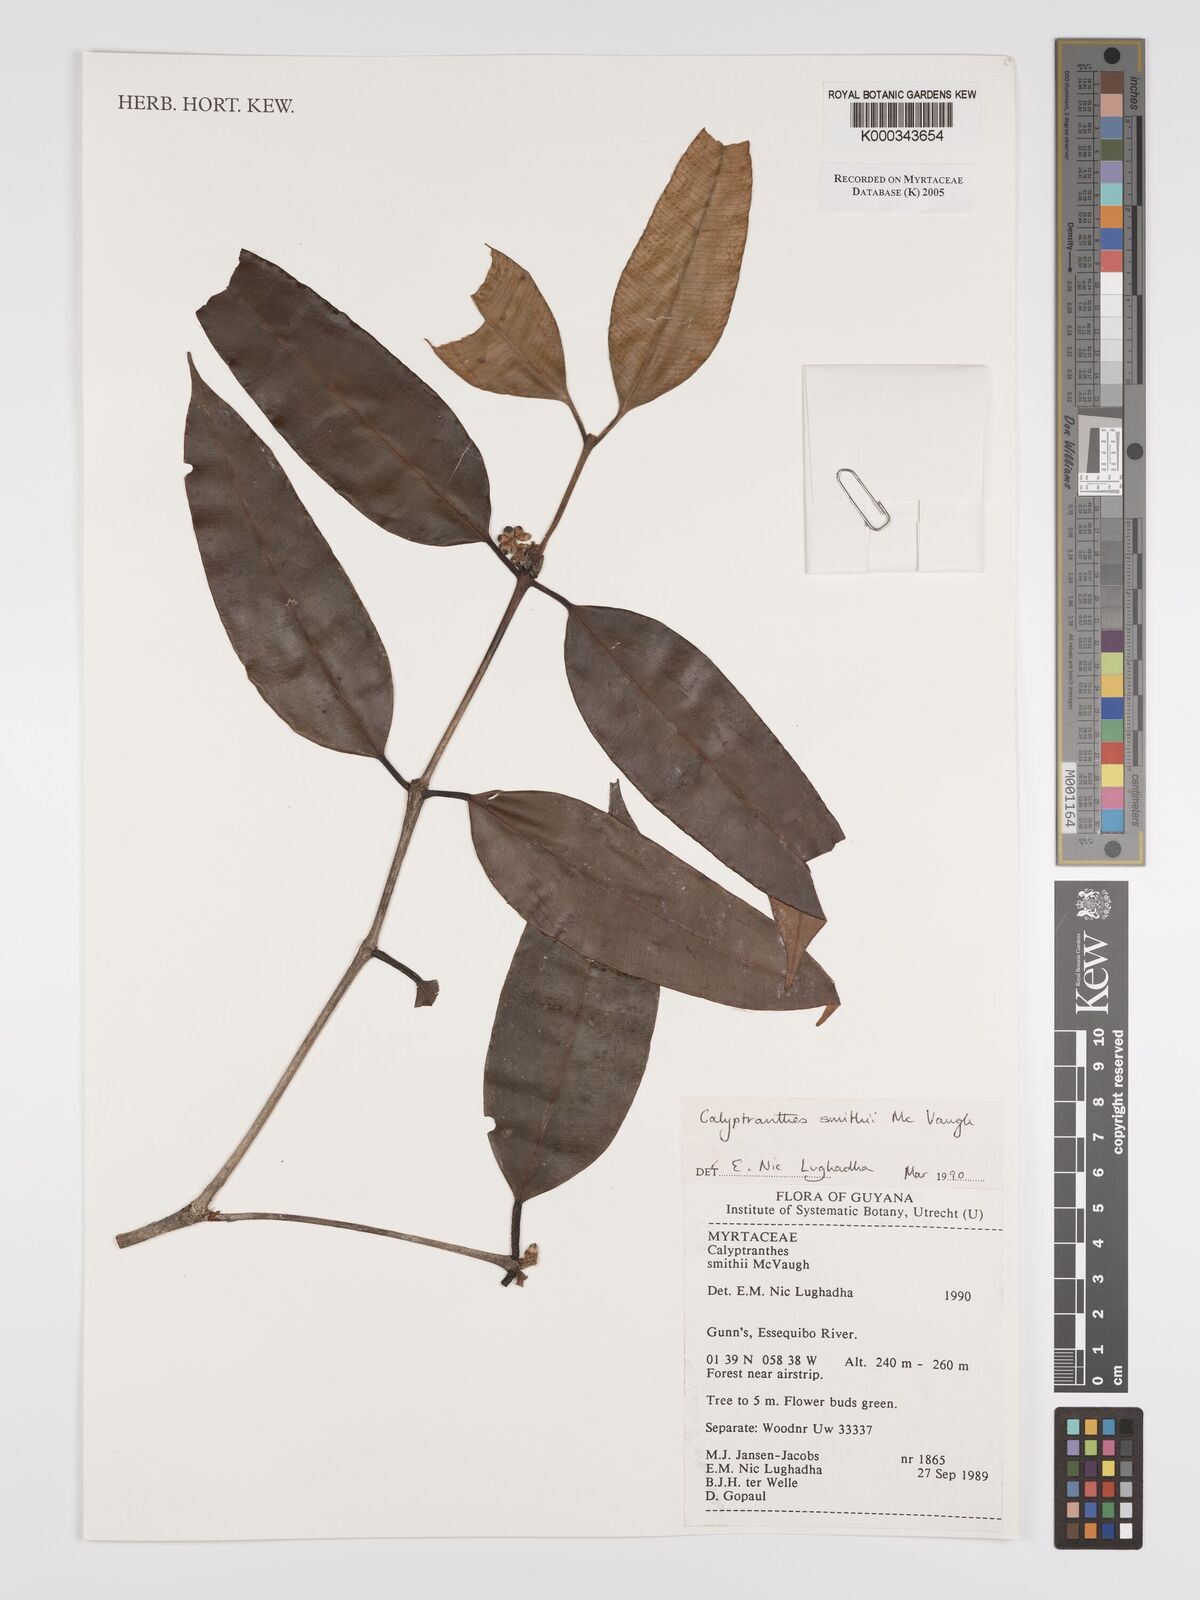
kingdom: Plantae
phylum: Tracheophyta
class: Magnoliopsida
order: Myrtales
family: Myrtaceae
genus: Myrcia
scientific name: Myrcia neosmithii
